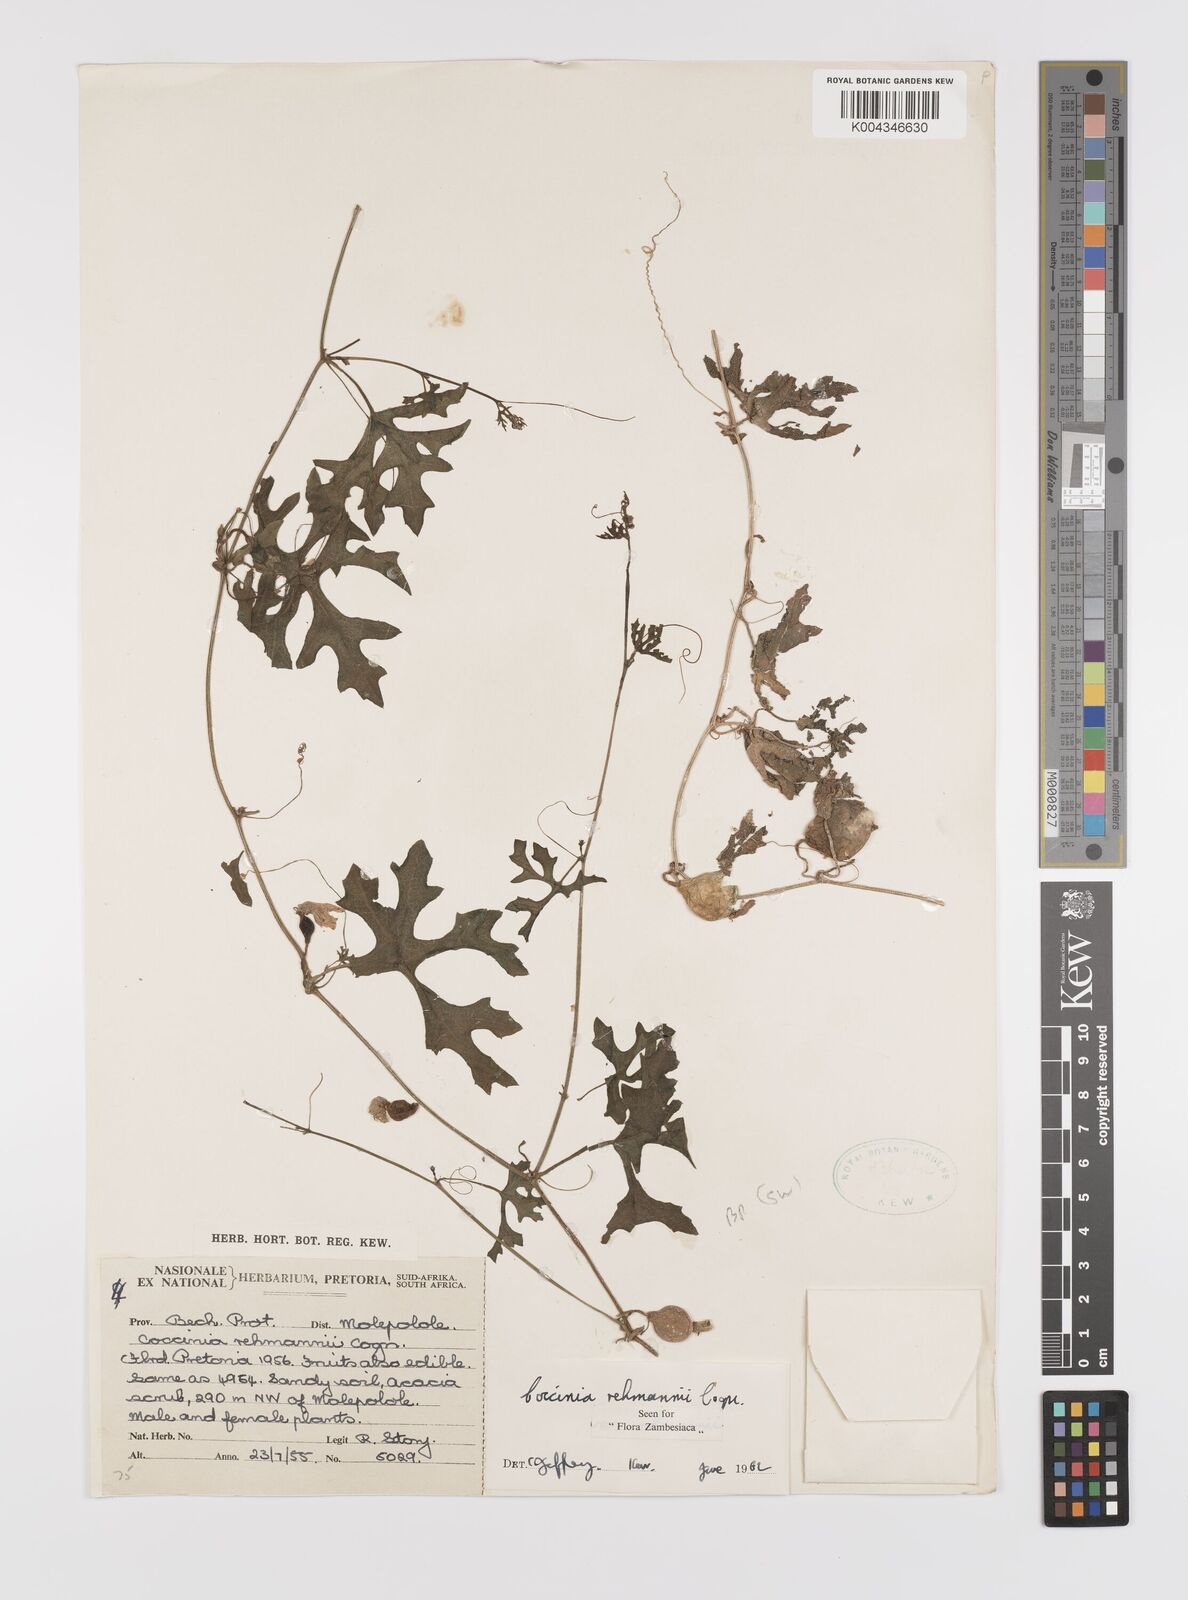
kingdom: Plantae
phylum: Tracheophyta
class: Magnoliopsida
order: Cucurbitales
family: Cucurbitaceae
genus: Coccinia
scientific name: Coccinia rehmannii
